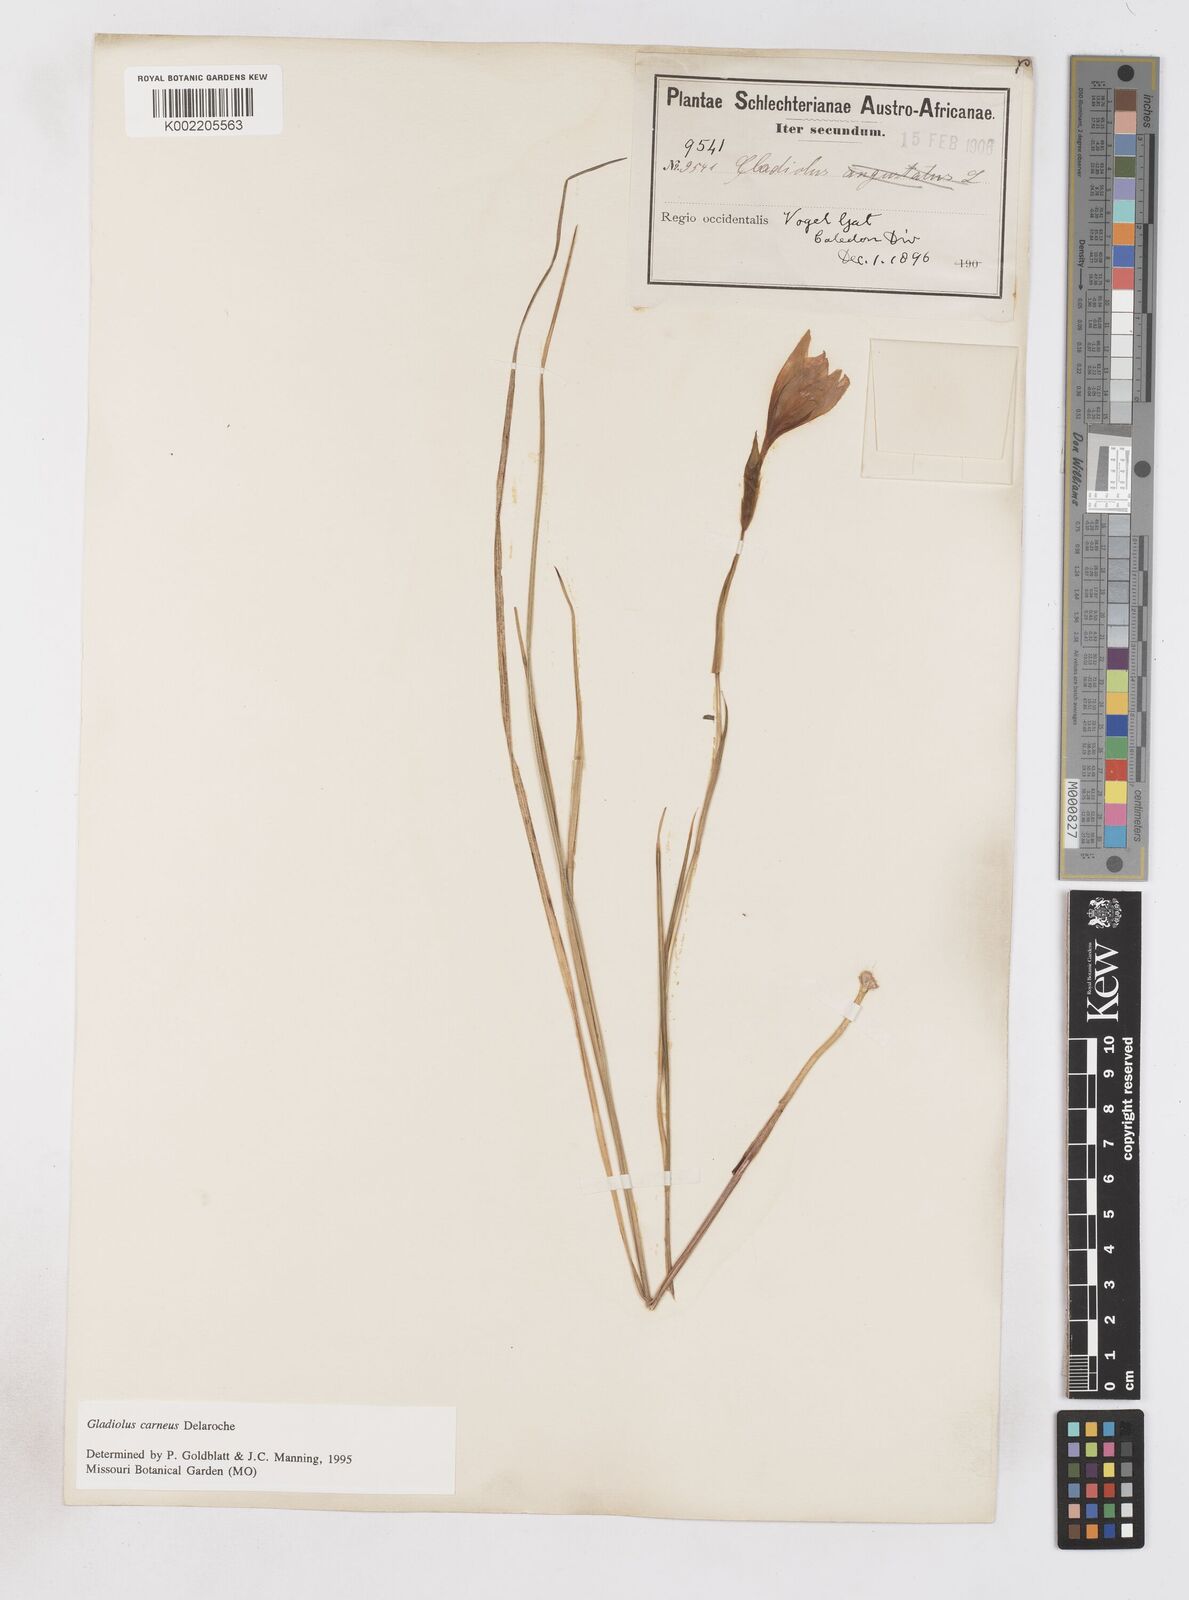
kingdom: Plantae
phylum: Tracheophyta
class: Liliopsida
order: Asparagales
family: Iridaceae
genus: Gladiolus
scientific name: Gladiolus carneus
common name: Painted-lady
